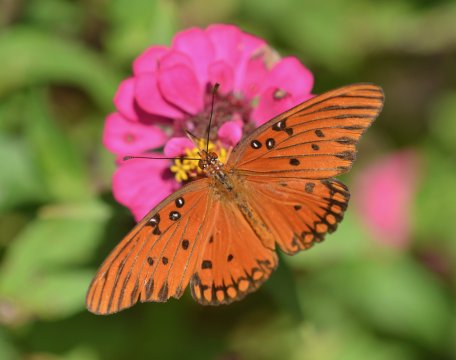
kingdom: Animalia
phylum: Arthropoda
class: Insecta
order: Lepidoptera
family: Nymphalidae
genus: Dione
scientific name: Dione vanillae
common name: Gulf Fritillary
